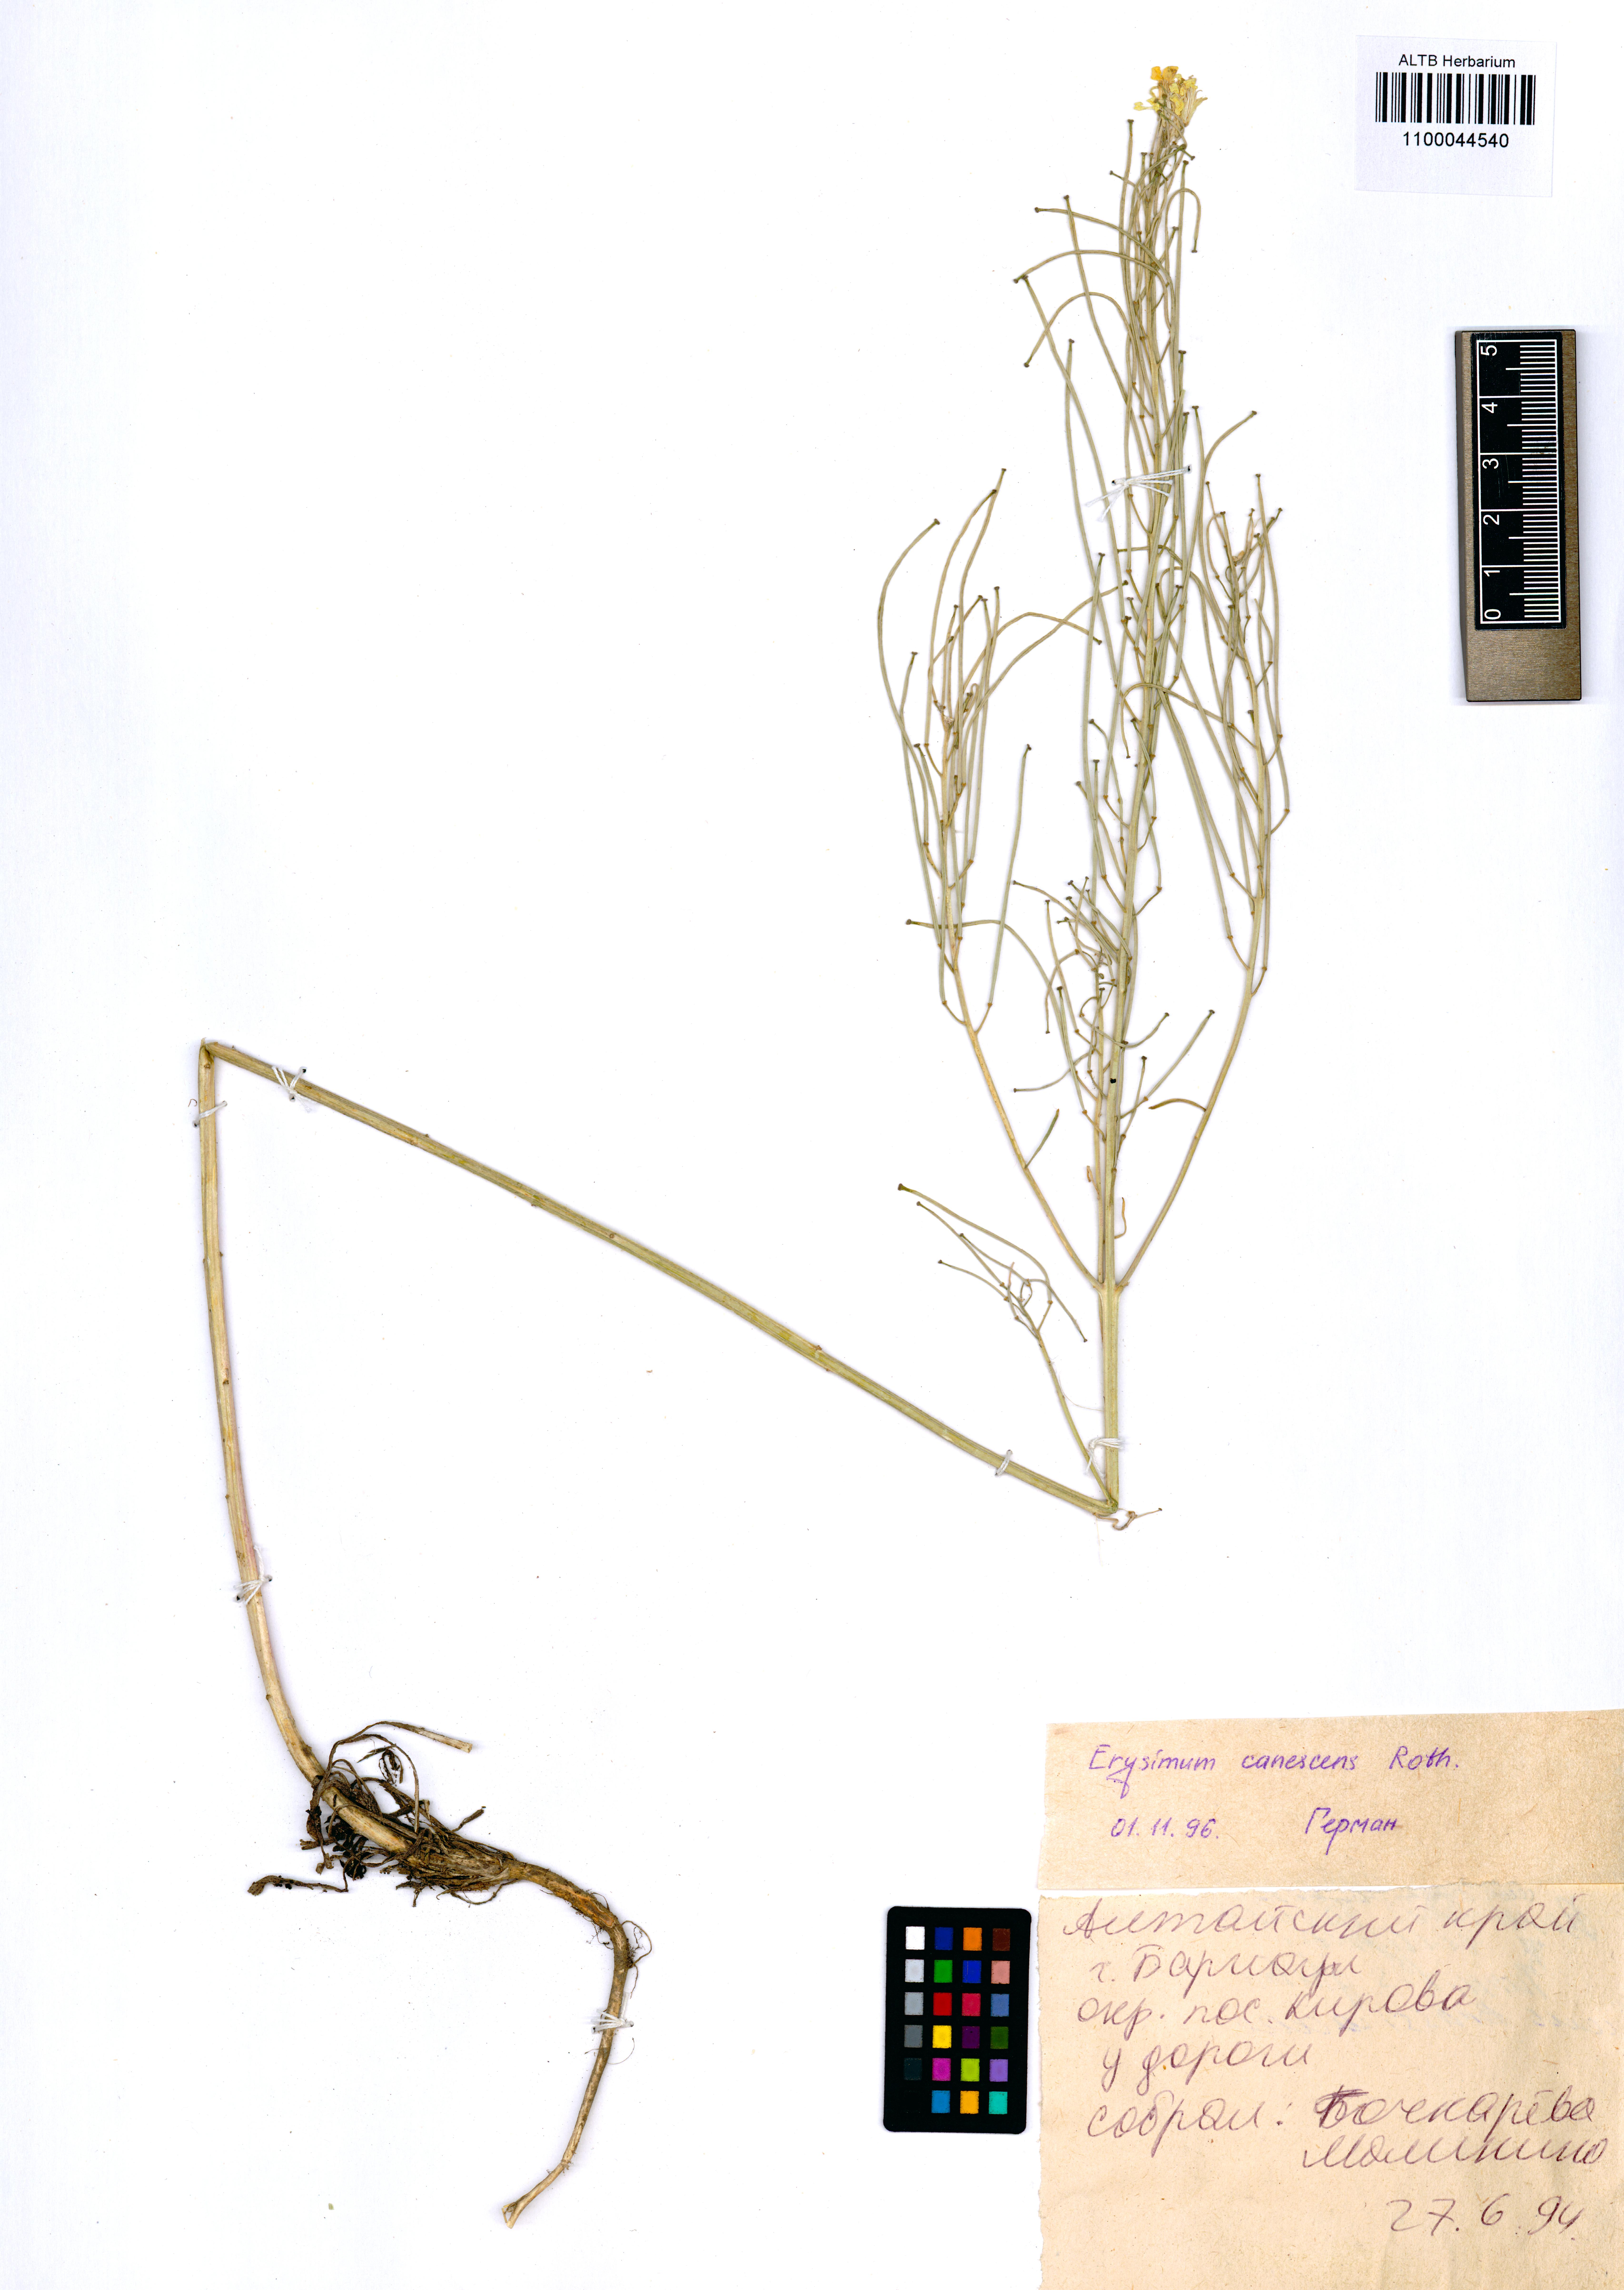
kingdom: Plantae
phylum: Tracheophyta
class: Magnoliopsida
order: Brassicales
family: Brassicaceae
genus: Erysimum
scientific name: Erysimum canescens
